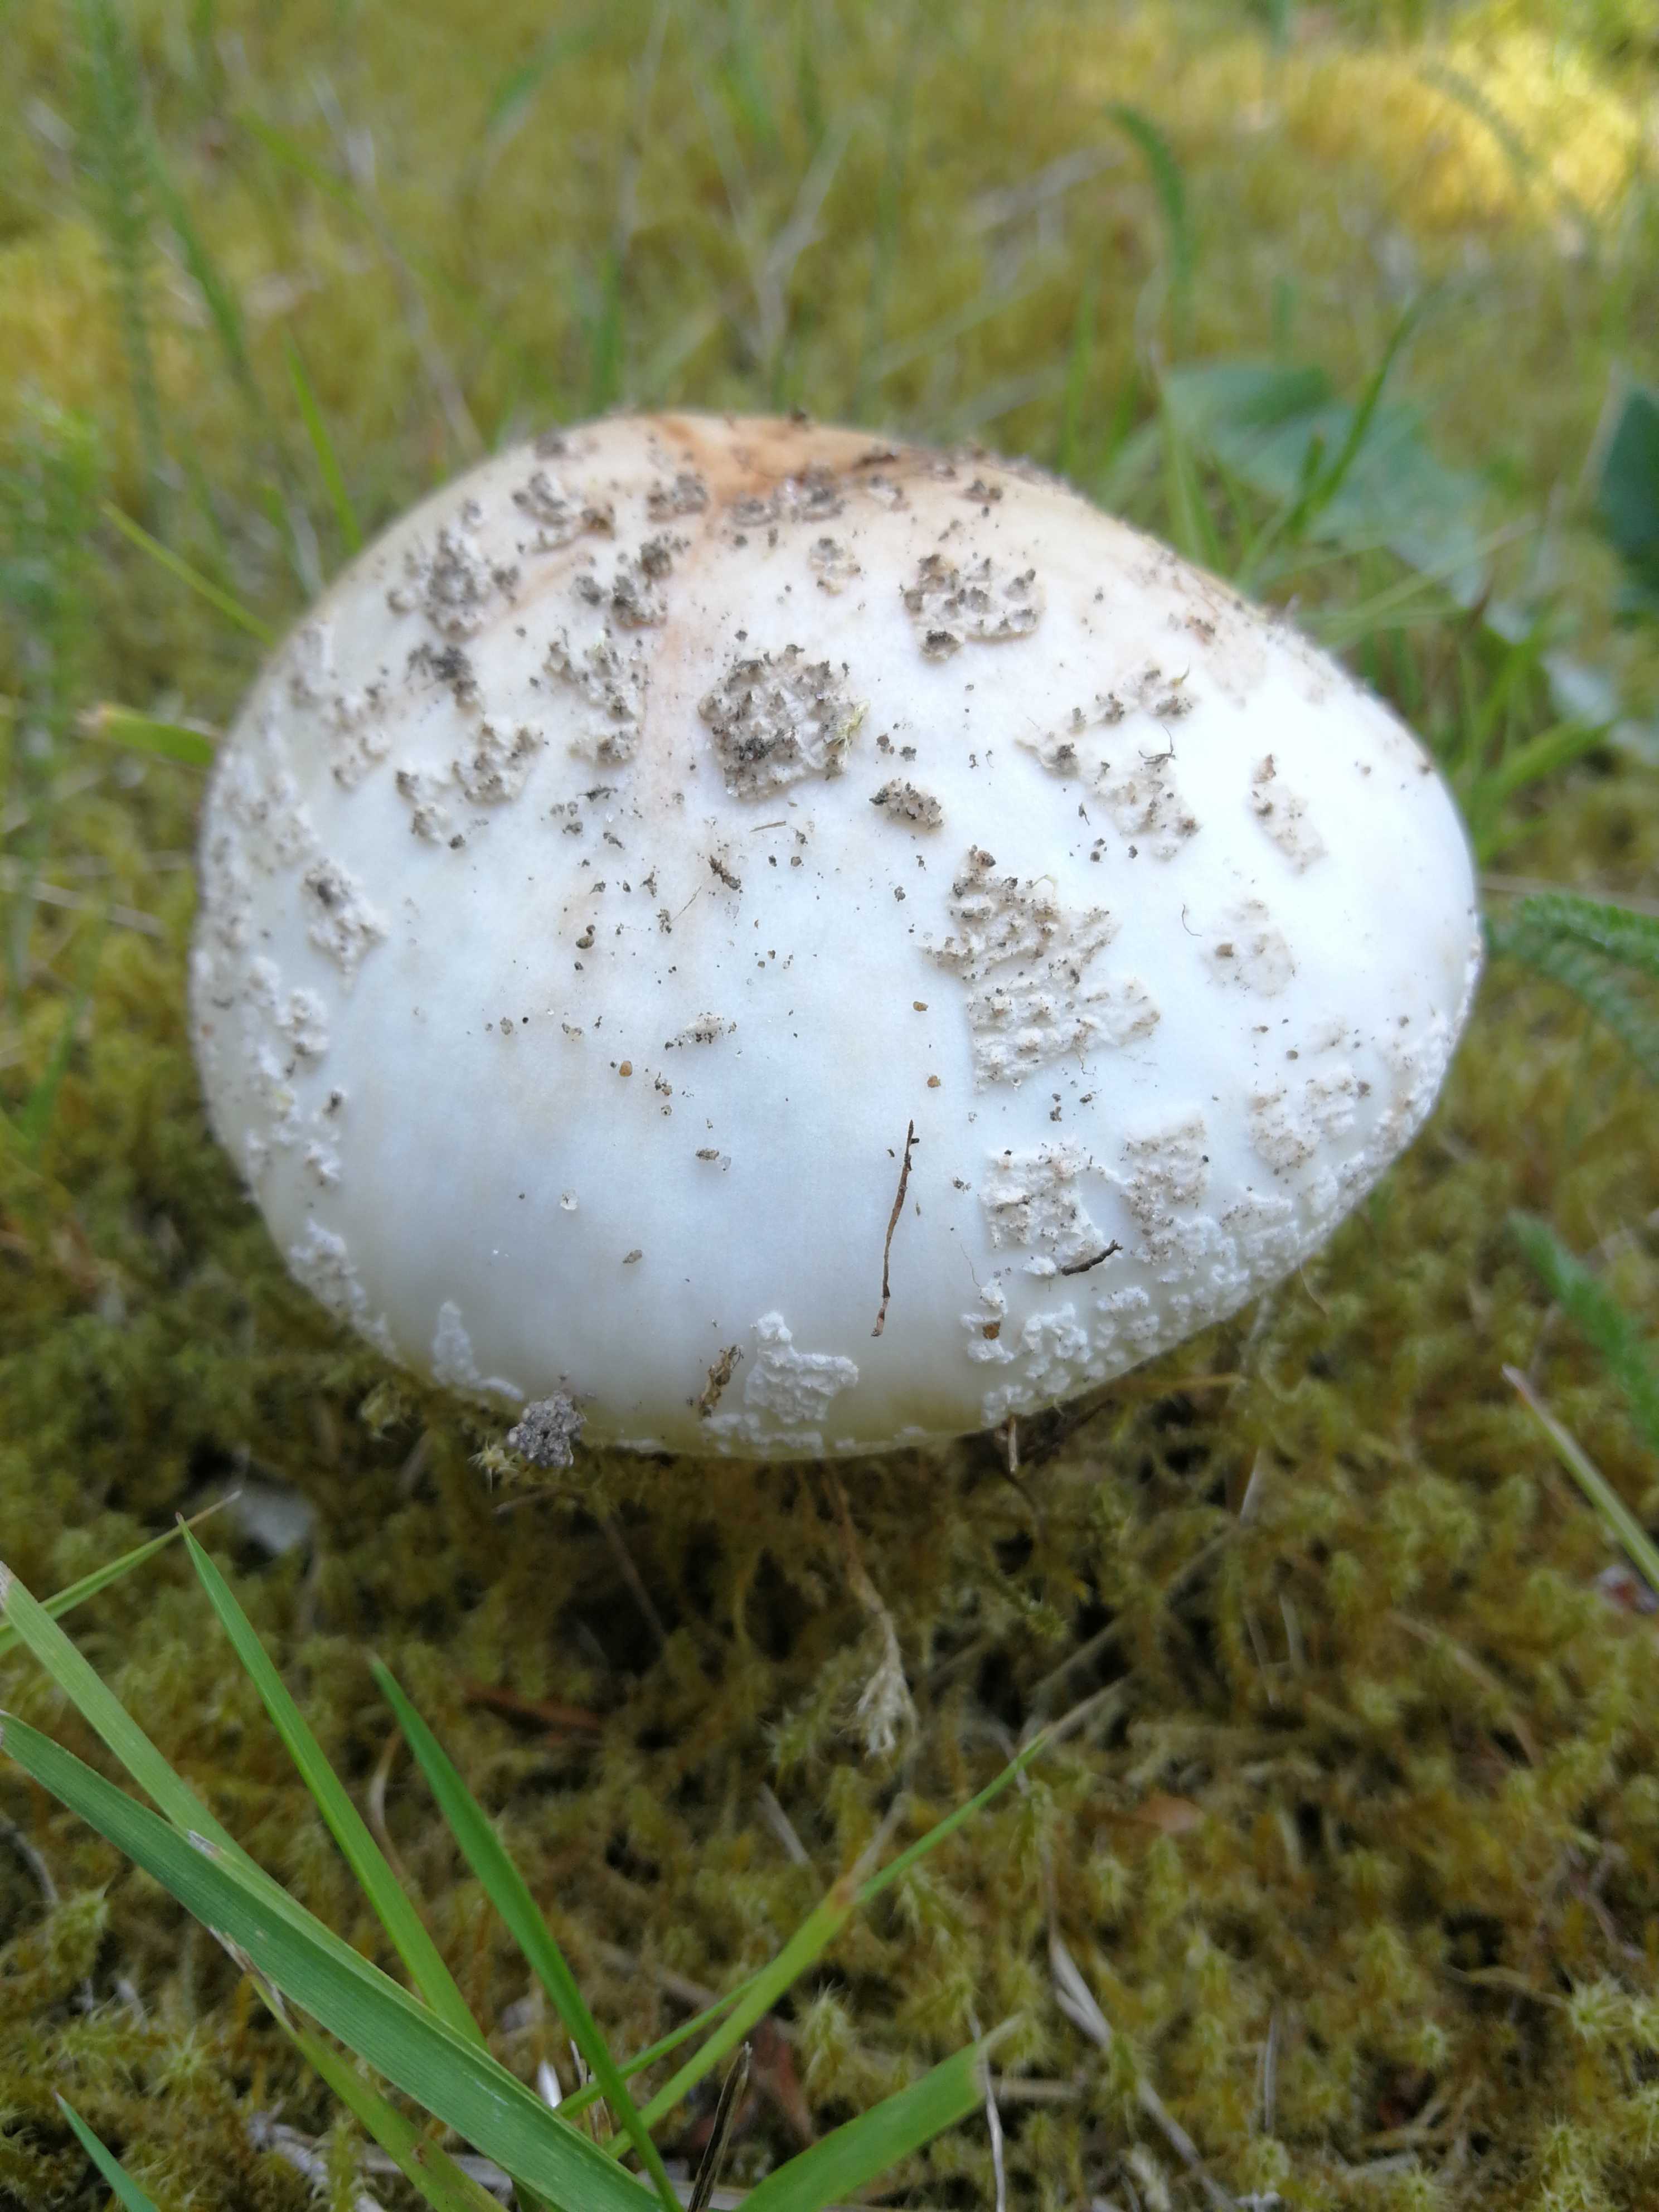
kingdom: Fungi
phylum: Basidiomycota
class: Agaricomycetes
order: Agaricales
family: Amanitaceae
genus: Amanita
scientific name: Amanita rubescens
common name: rødmende fluesvamp
